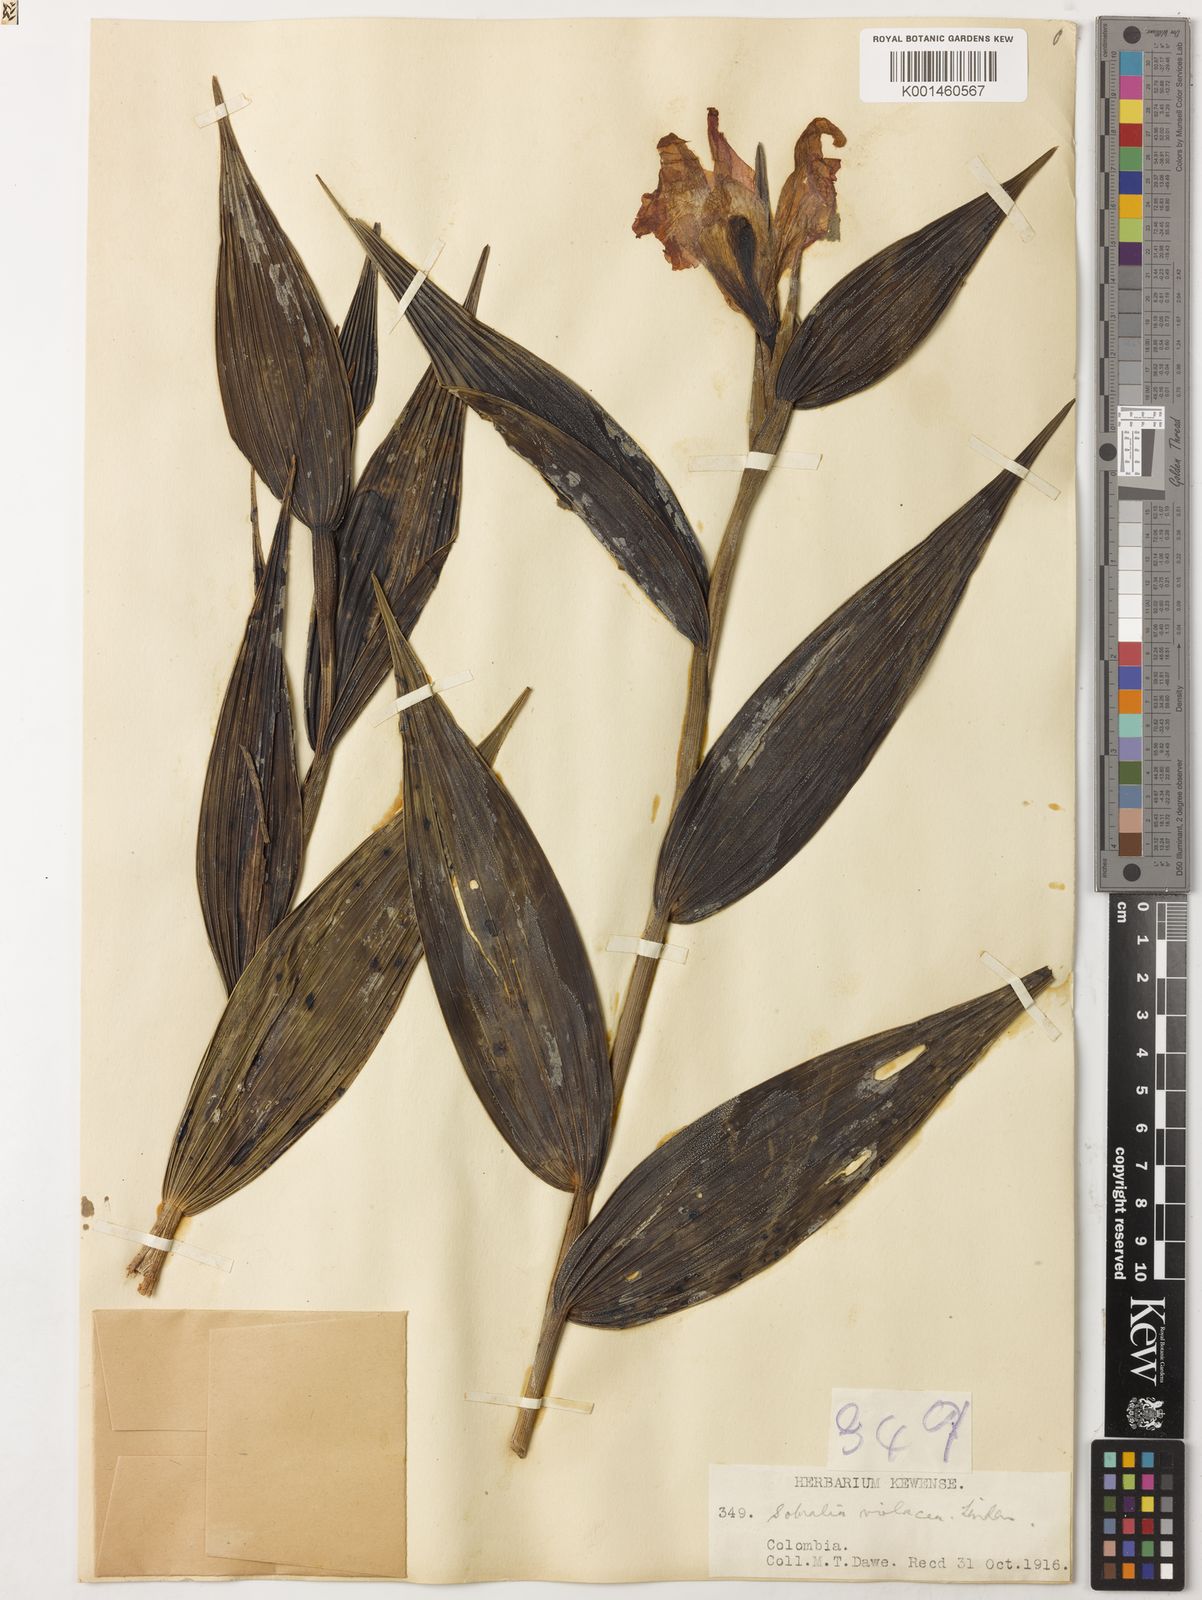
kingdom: Plantae
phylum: Tracheophyta
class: Liliopsida
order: Asparagales
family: Orchidaceae
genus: Sobralia
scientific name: Sobralia violacea
